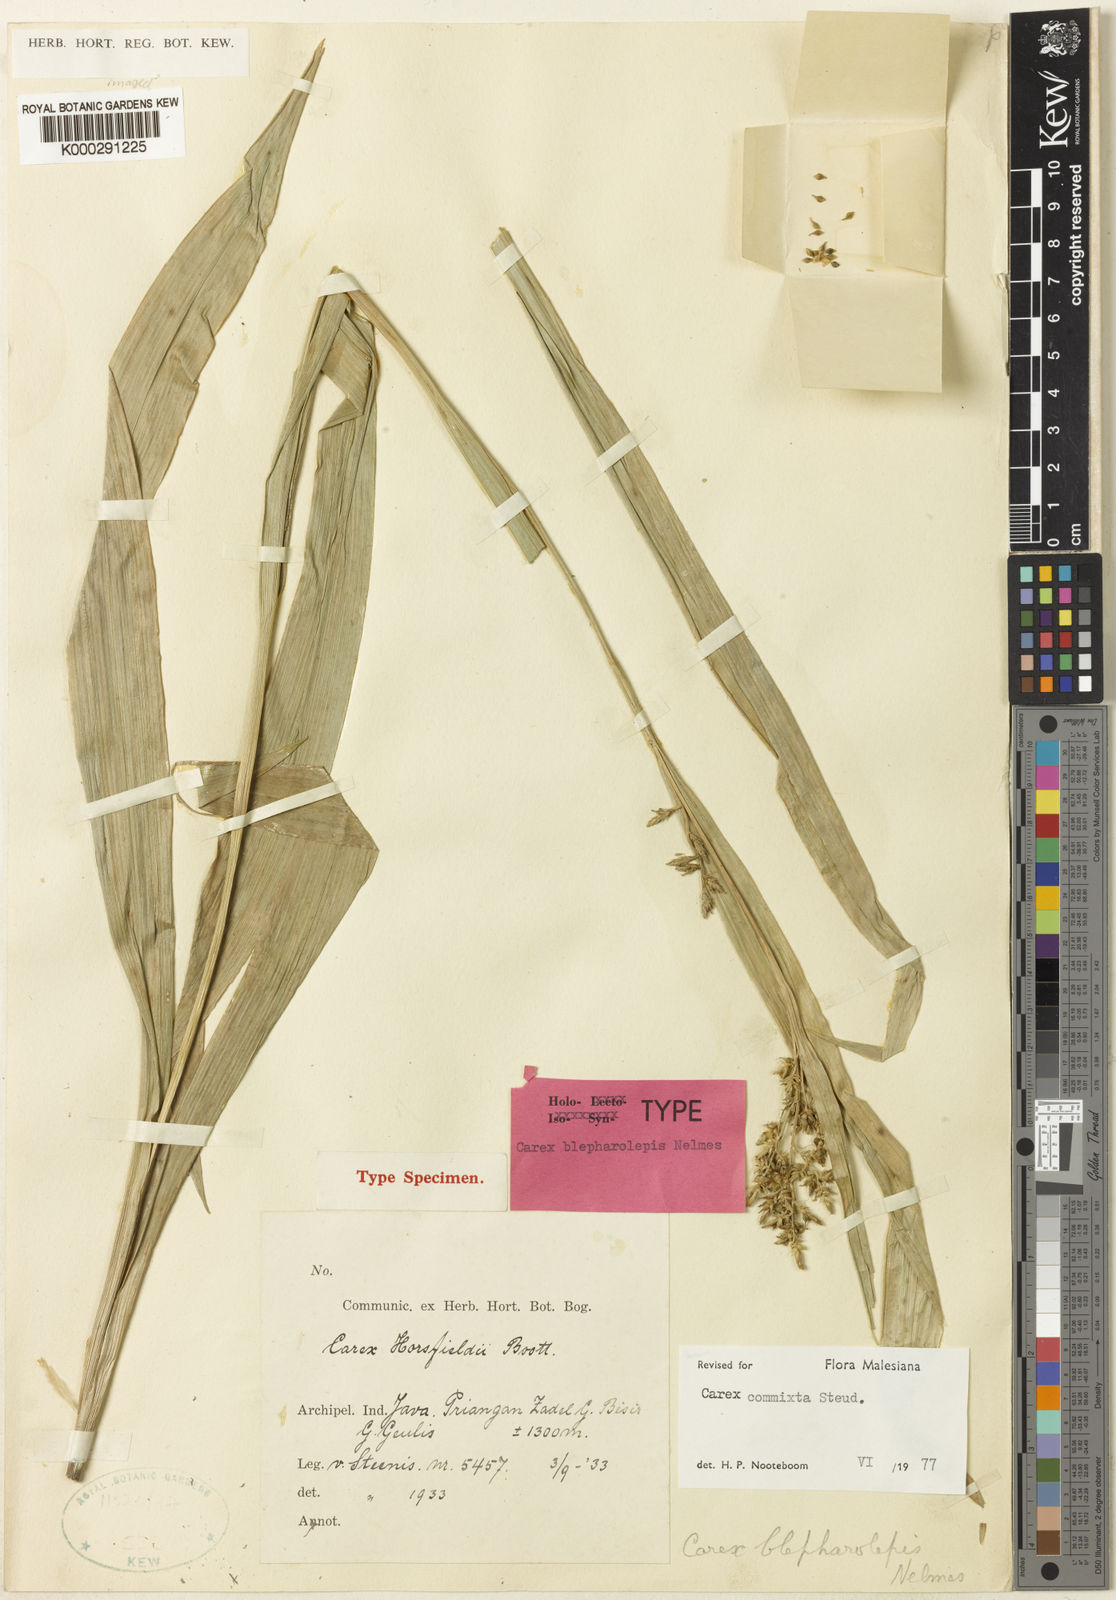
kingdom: Plantae
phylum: Tracheophyta
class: Liliopsida
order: Poales
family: Cyperaceae
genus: Carex
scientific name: Carex commixta
